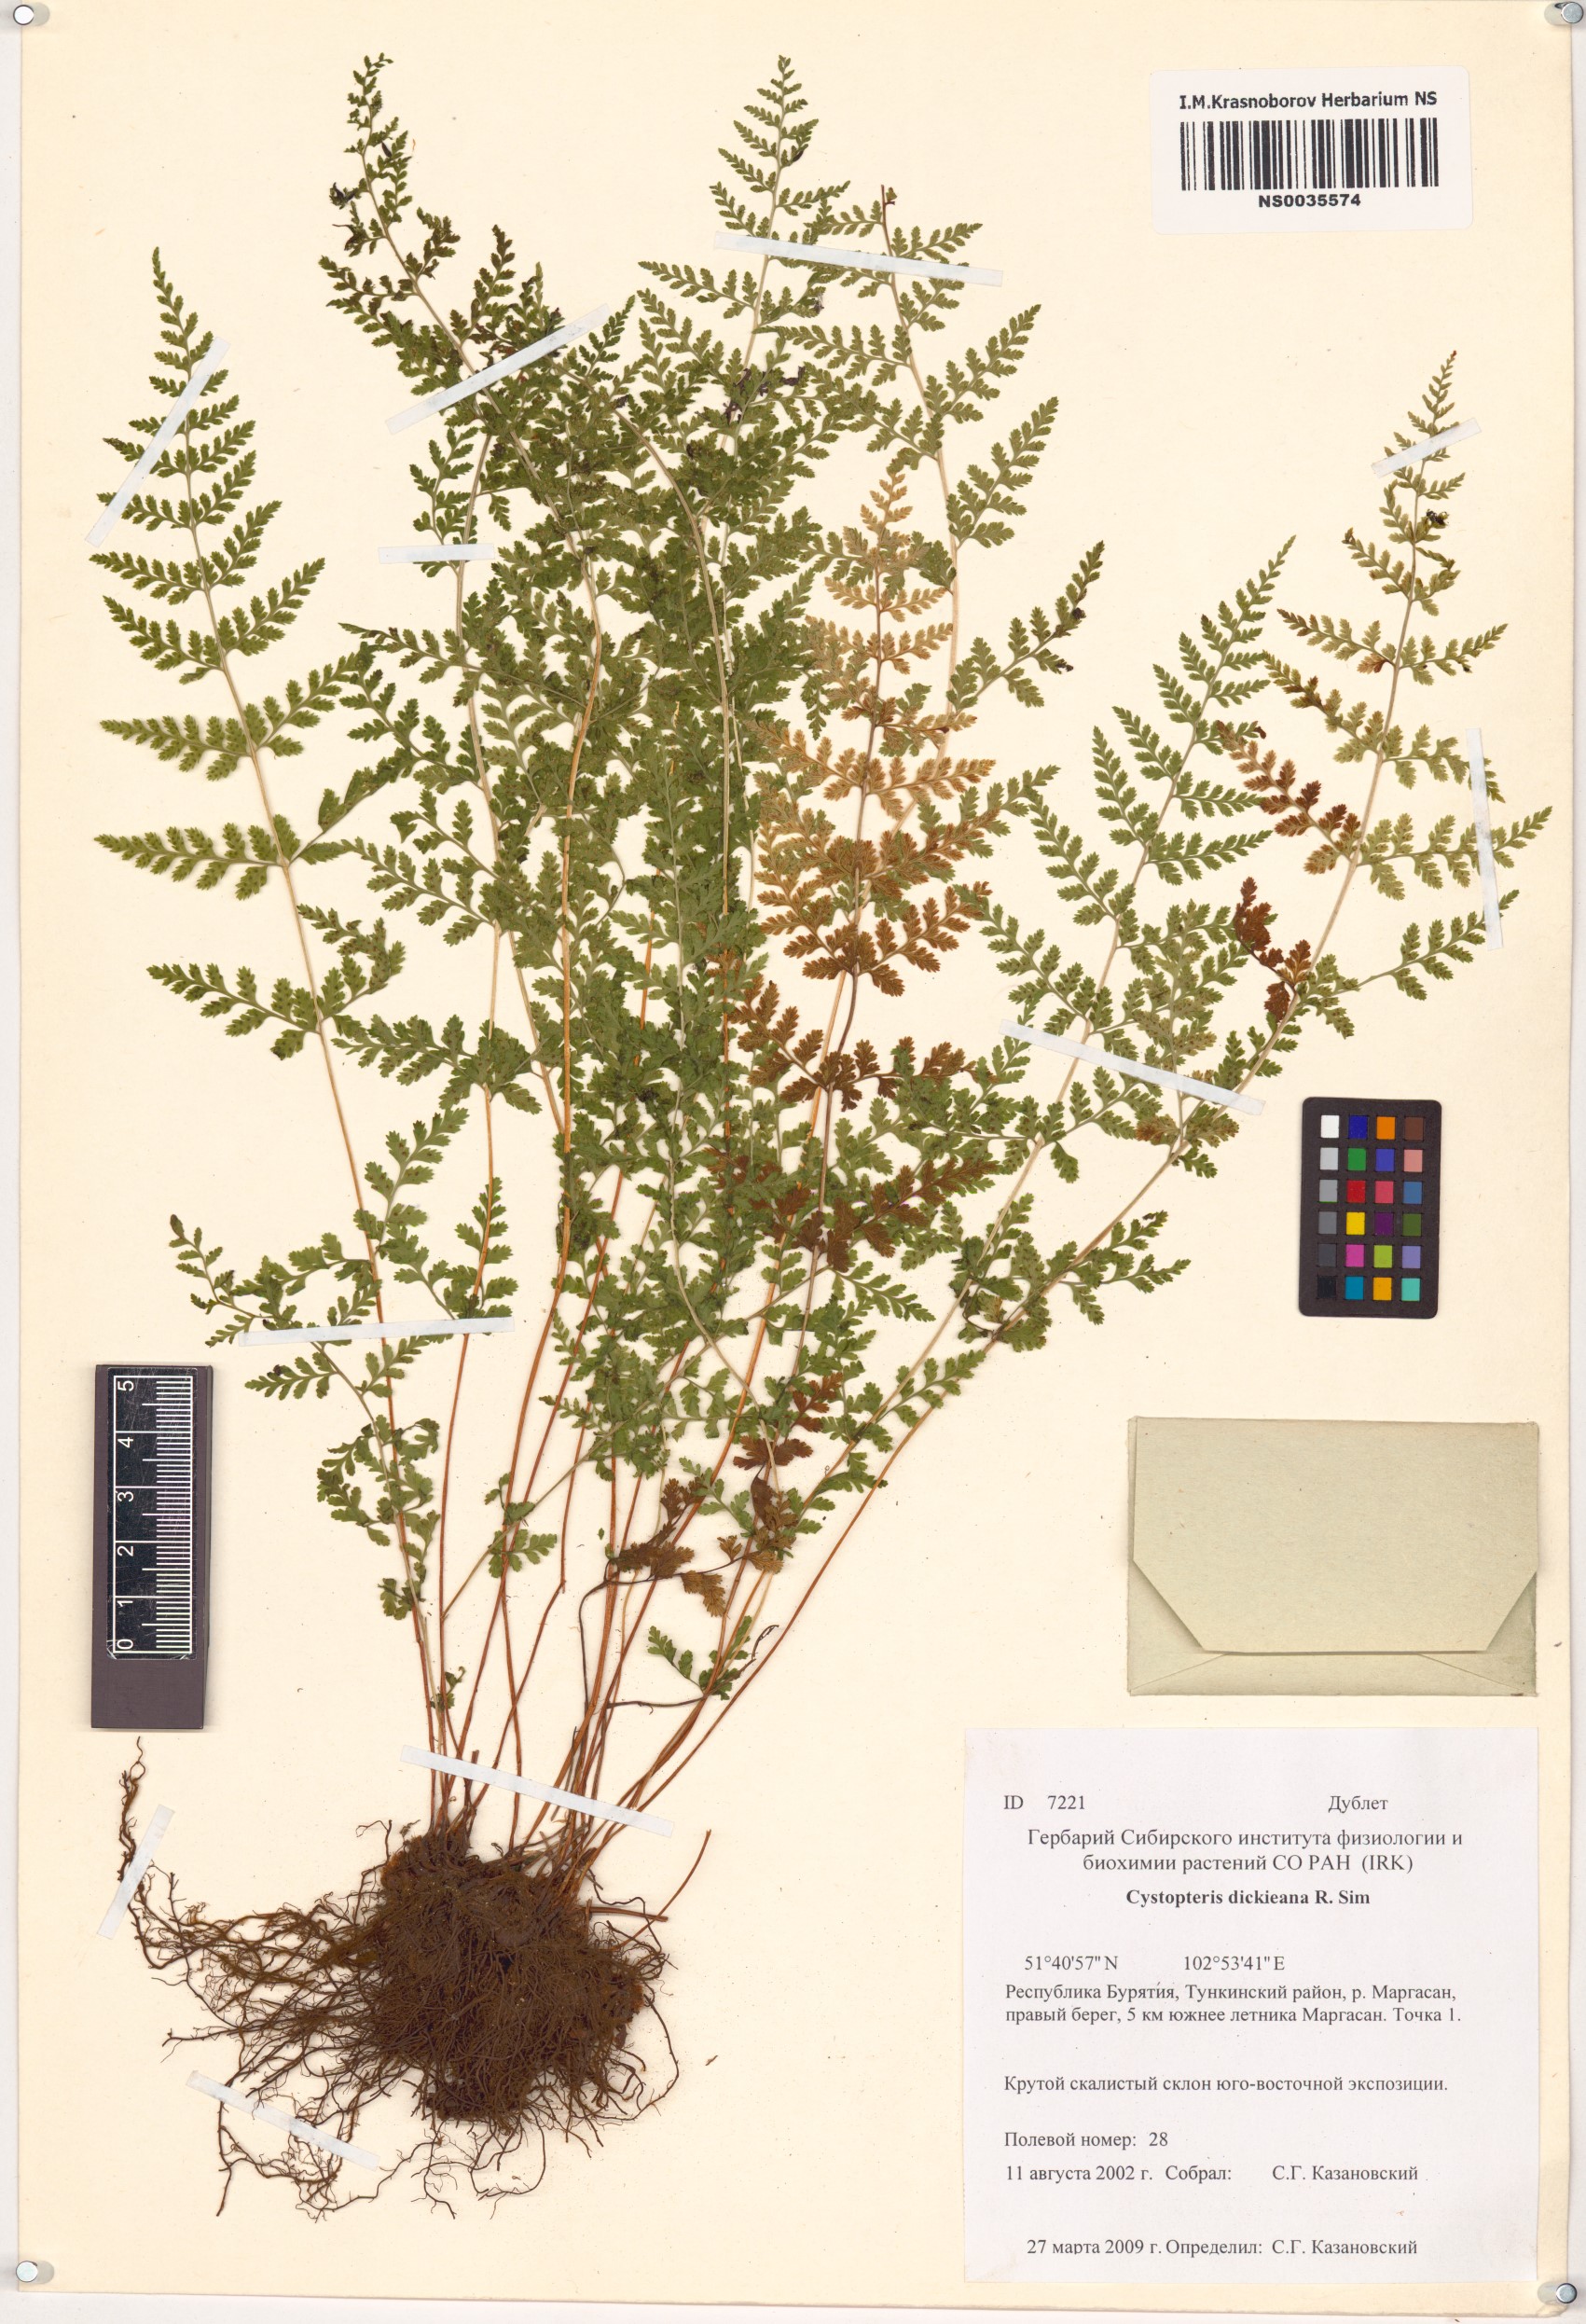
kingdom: Plantae
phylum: Tracheophyta
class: Polypodiopsida
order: Polypodiales
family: Cystopteridaceae
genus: Cystopteris
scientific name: Cystopteris dickieana
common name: Dickie's bladder-fern
